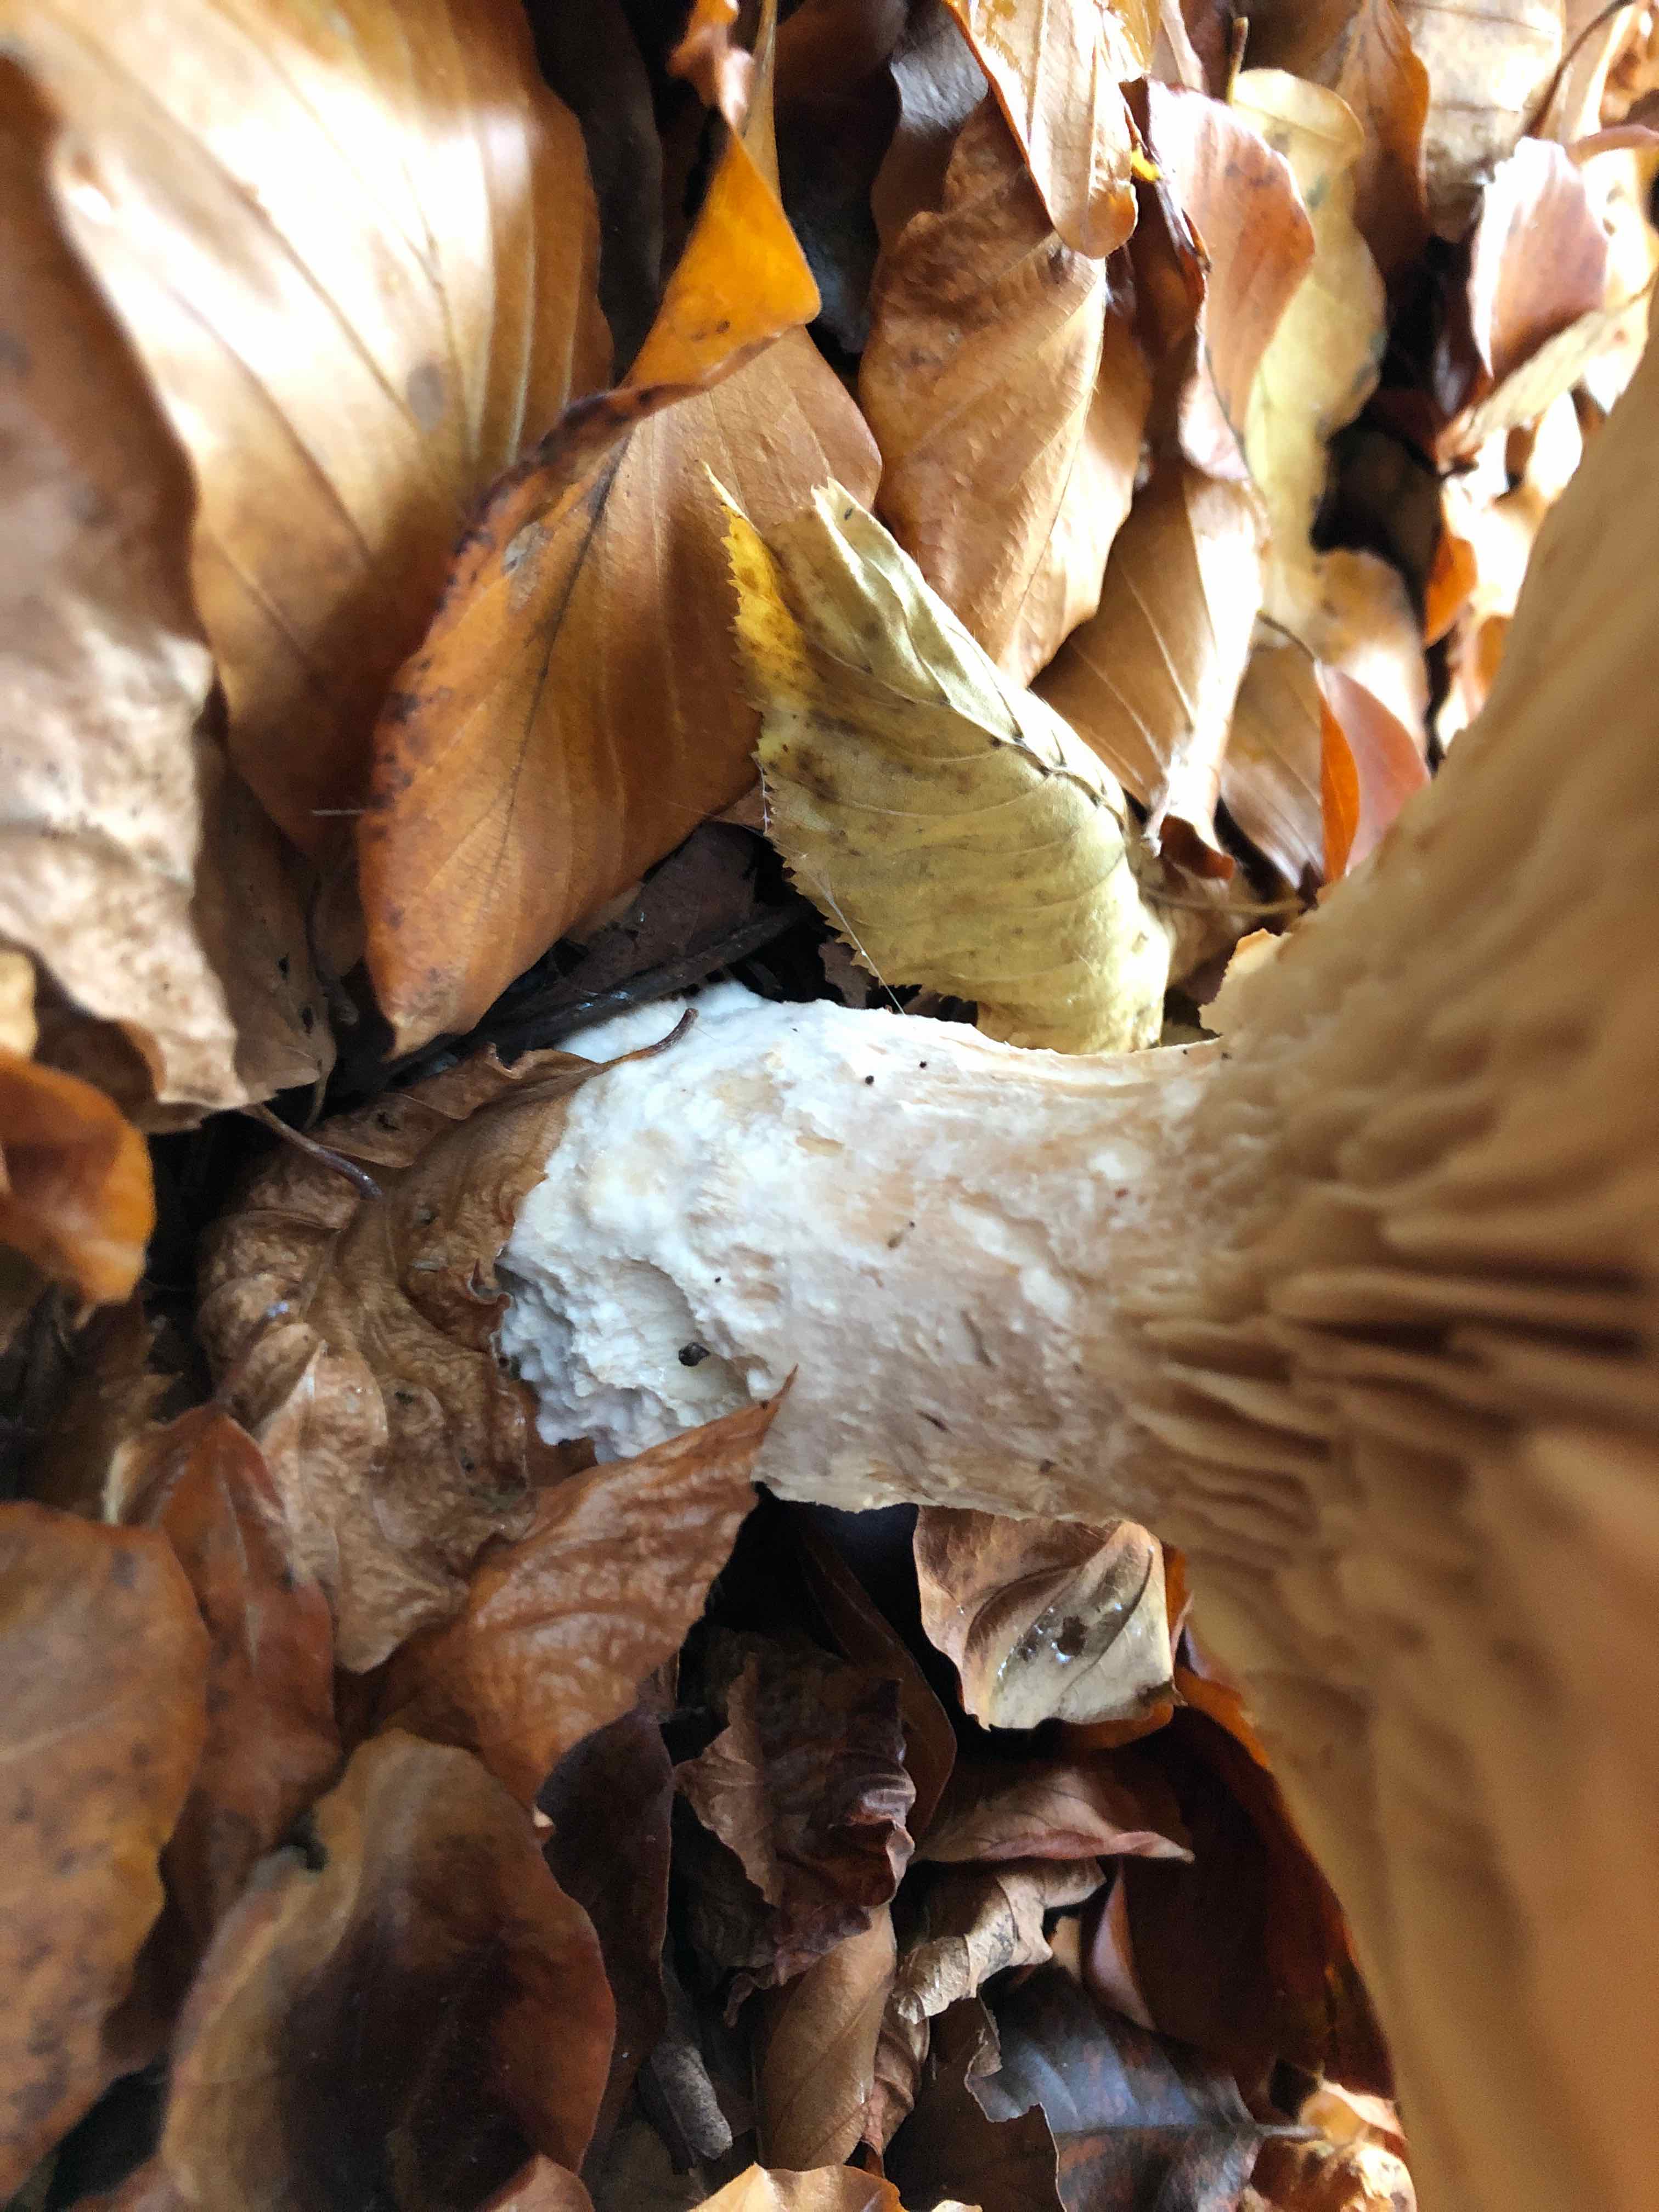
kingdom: Fungi
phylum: Basidiomycota
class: Agaricomycetes
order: Agaricales
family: Tricholomataceae
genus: Infundibulicybe
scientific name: Infundibulicybe geotropa
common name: stor tragthat
